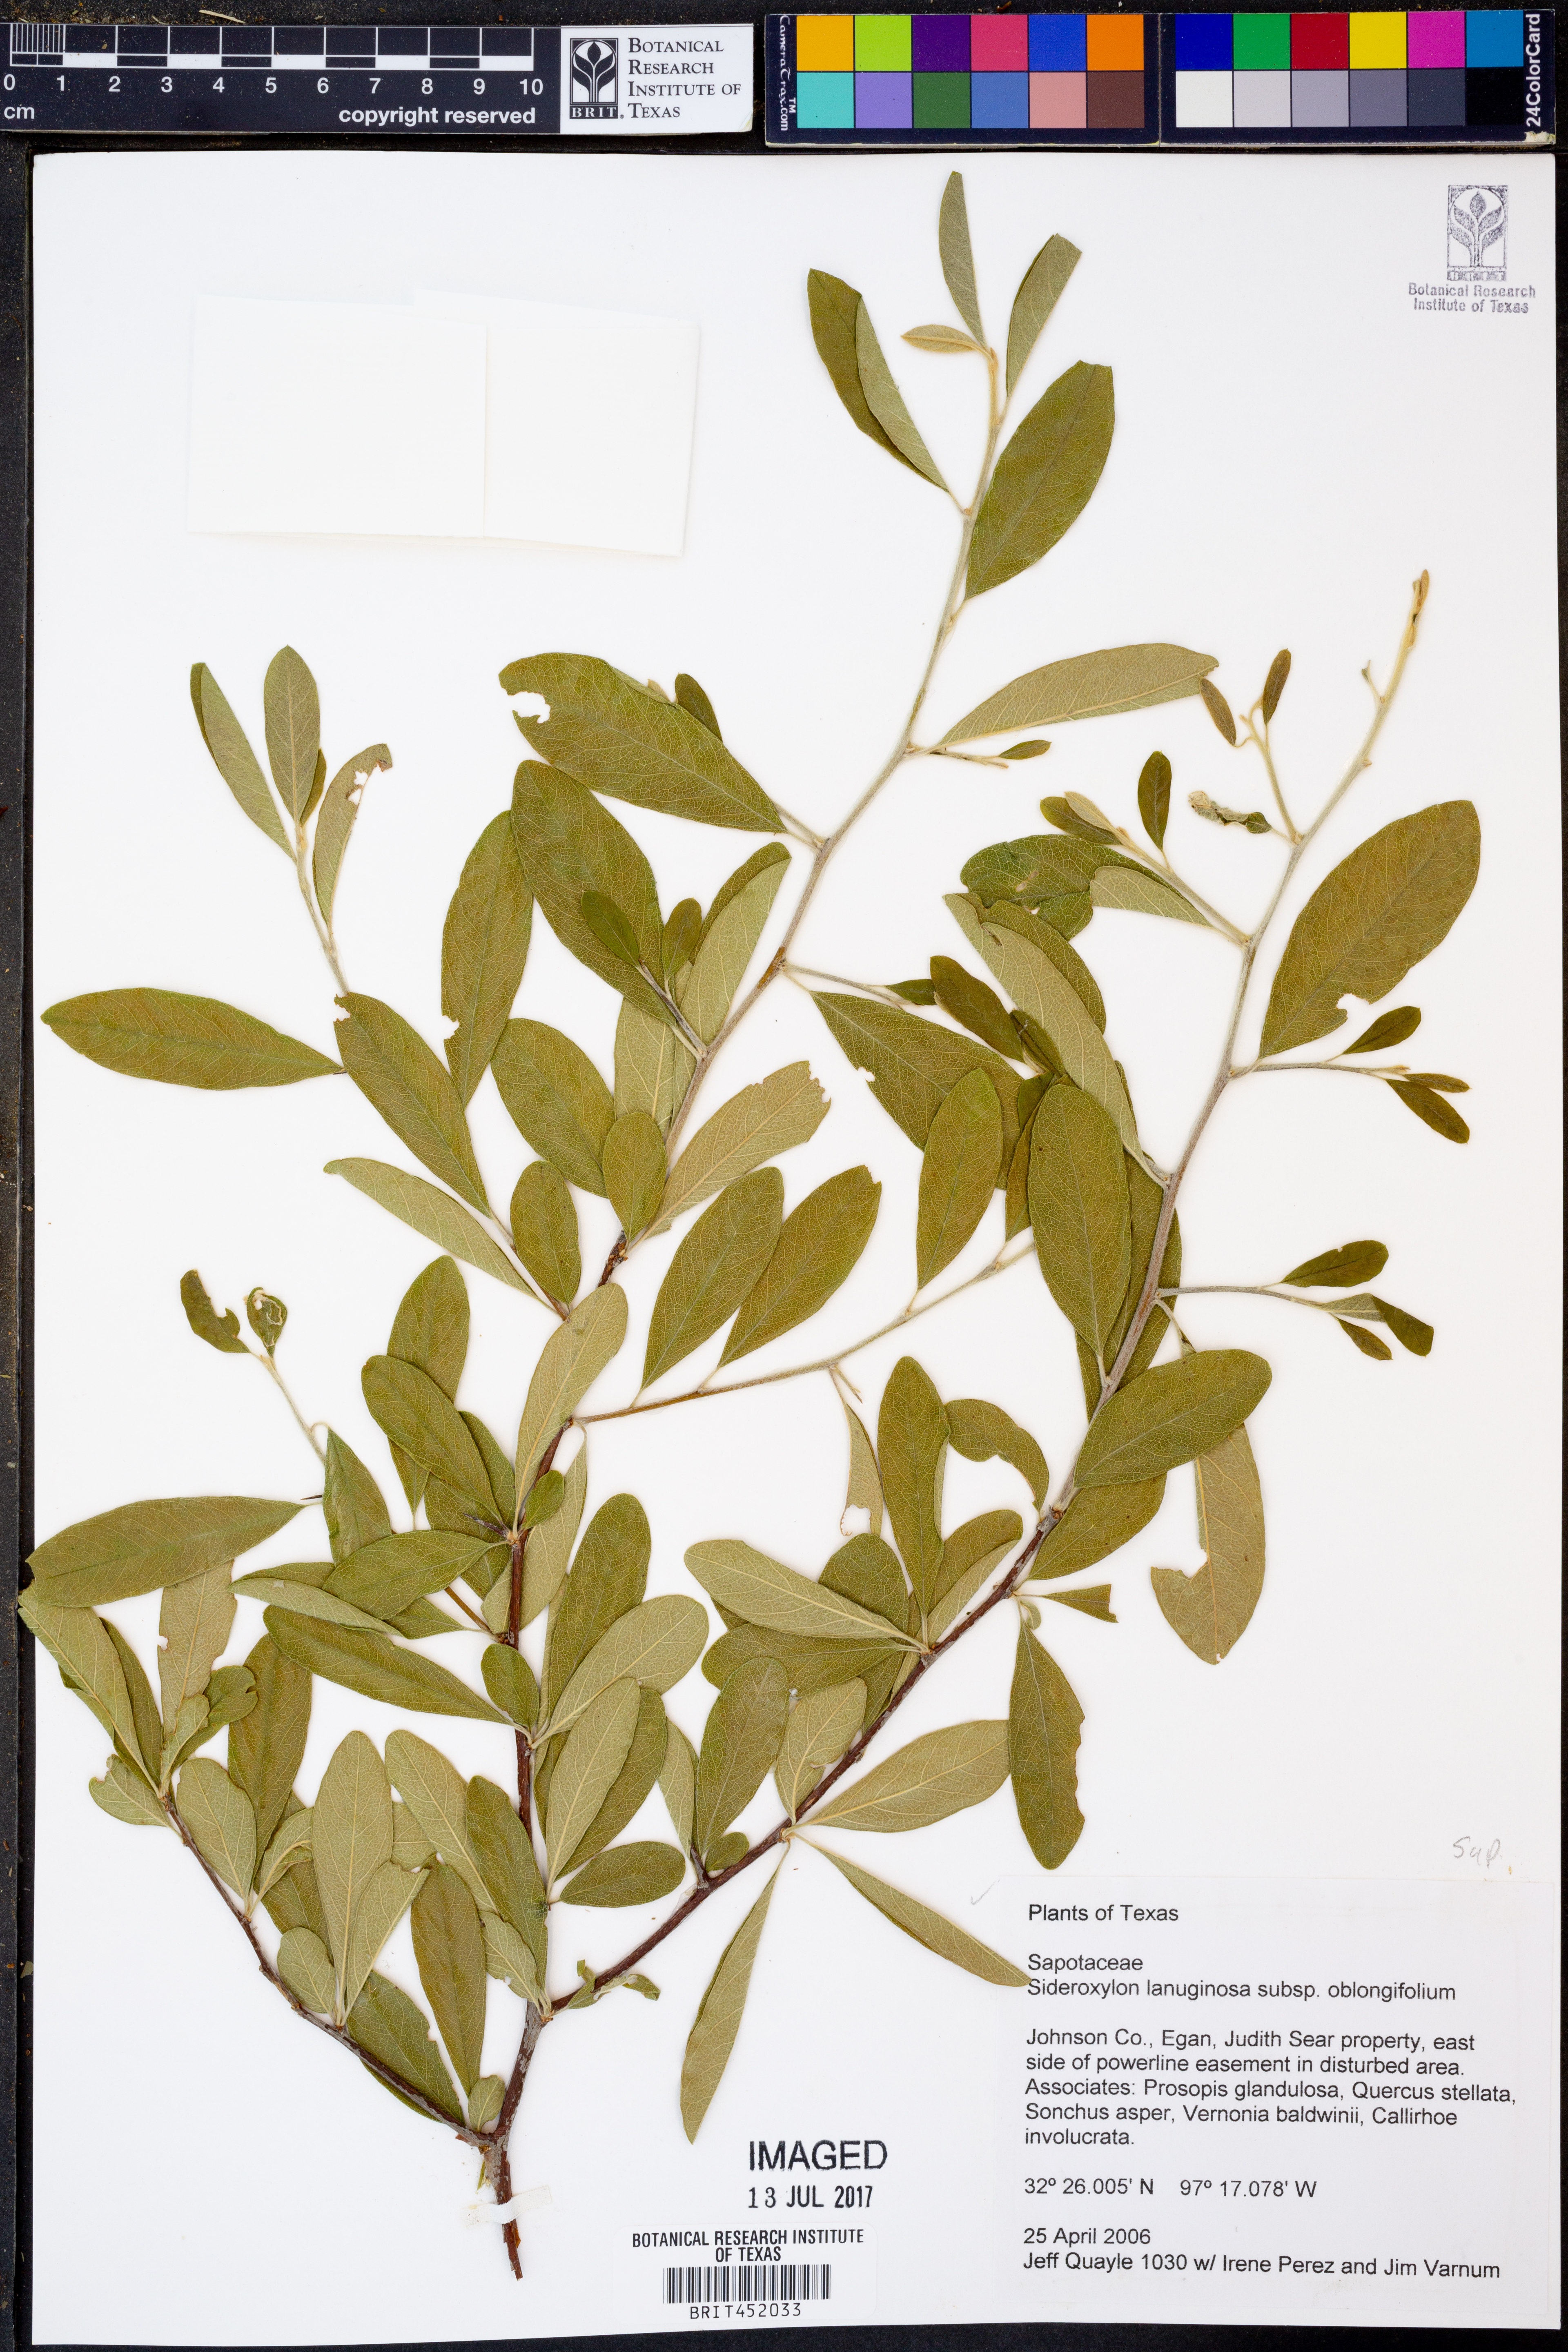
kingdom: Plantae
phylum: Tracheophyta
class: Magnoliopsida
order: Ericales
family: Sapotaceae
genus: Sideroxylon
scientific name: Sideroxylon lanuginosum
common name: Chittamwood
